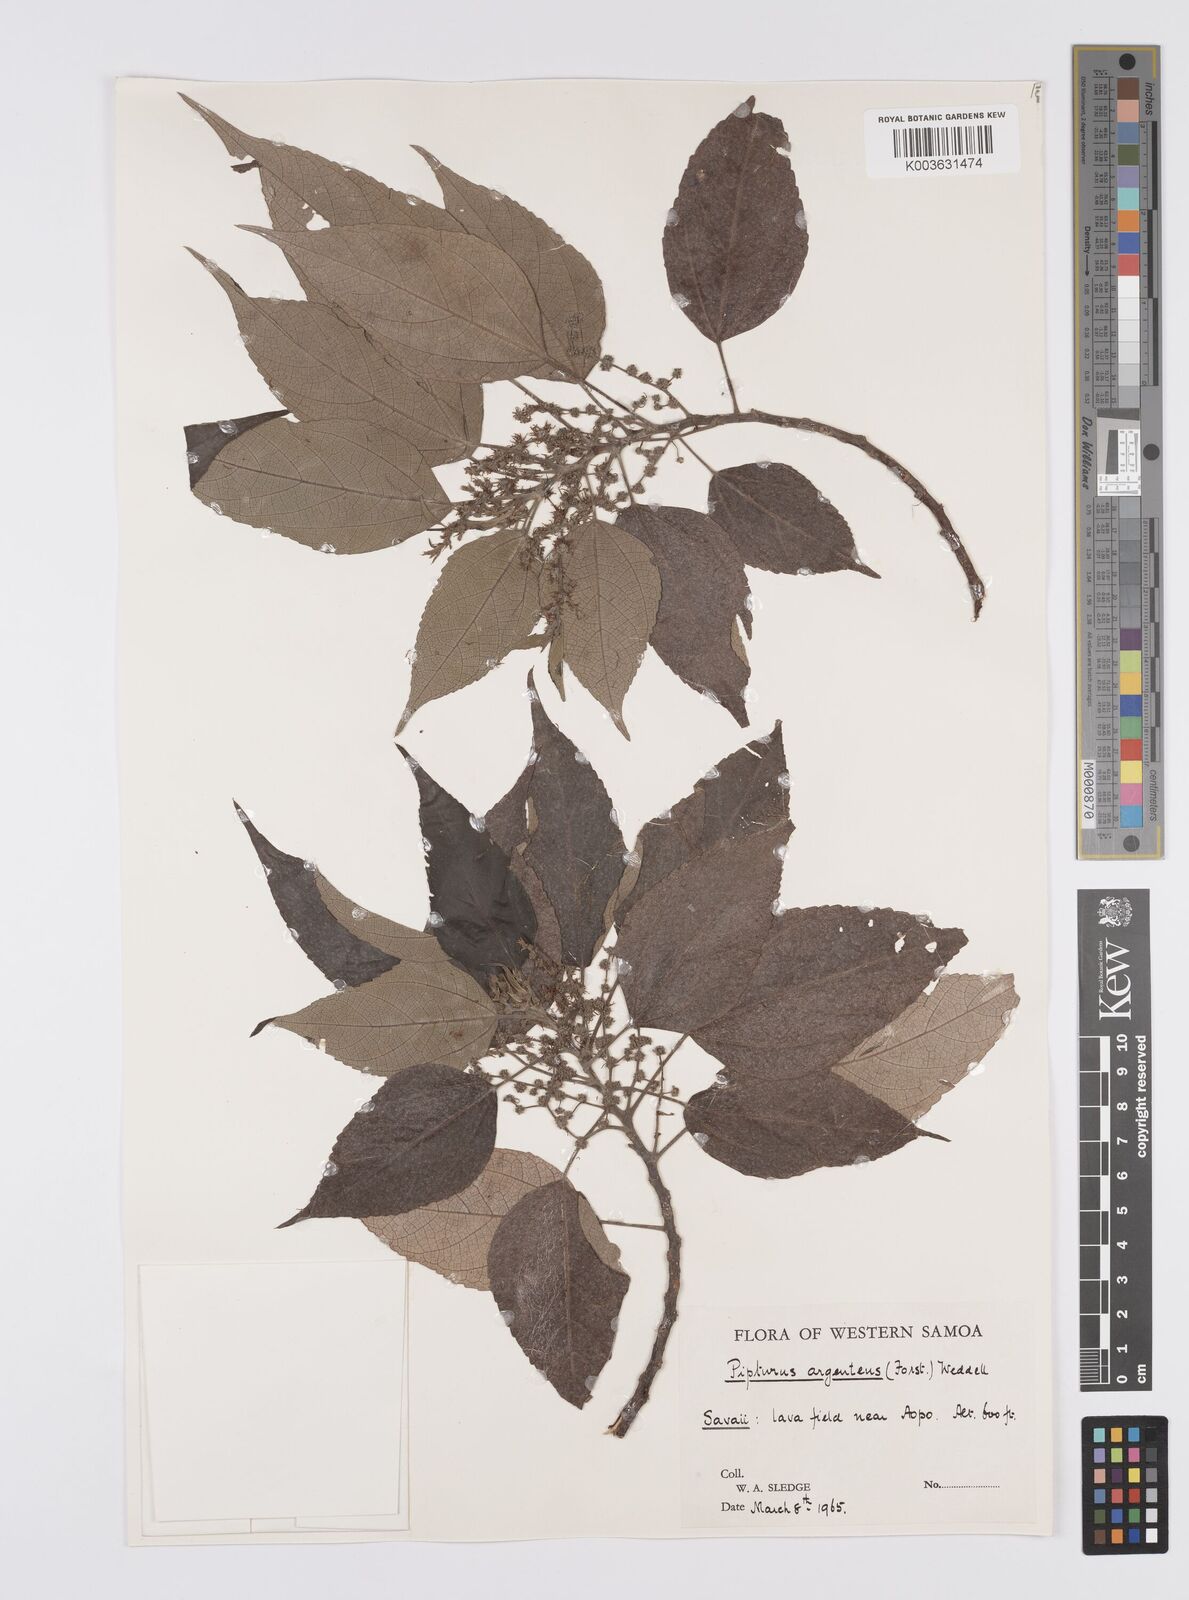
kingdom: Plantae
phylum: Tracheophyta
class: Magnoliopsida
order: Rosales
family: Urticaceae
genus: Pipturus
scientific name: Pipturus argenteus
